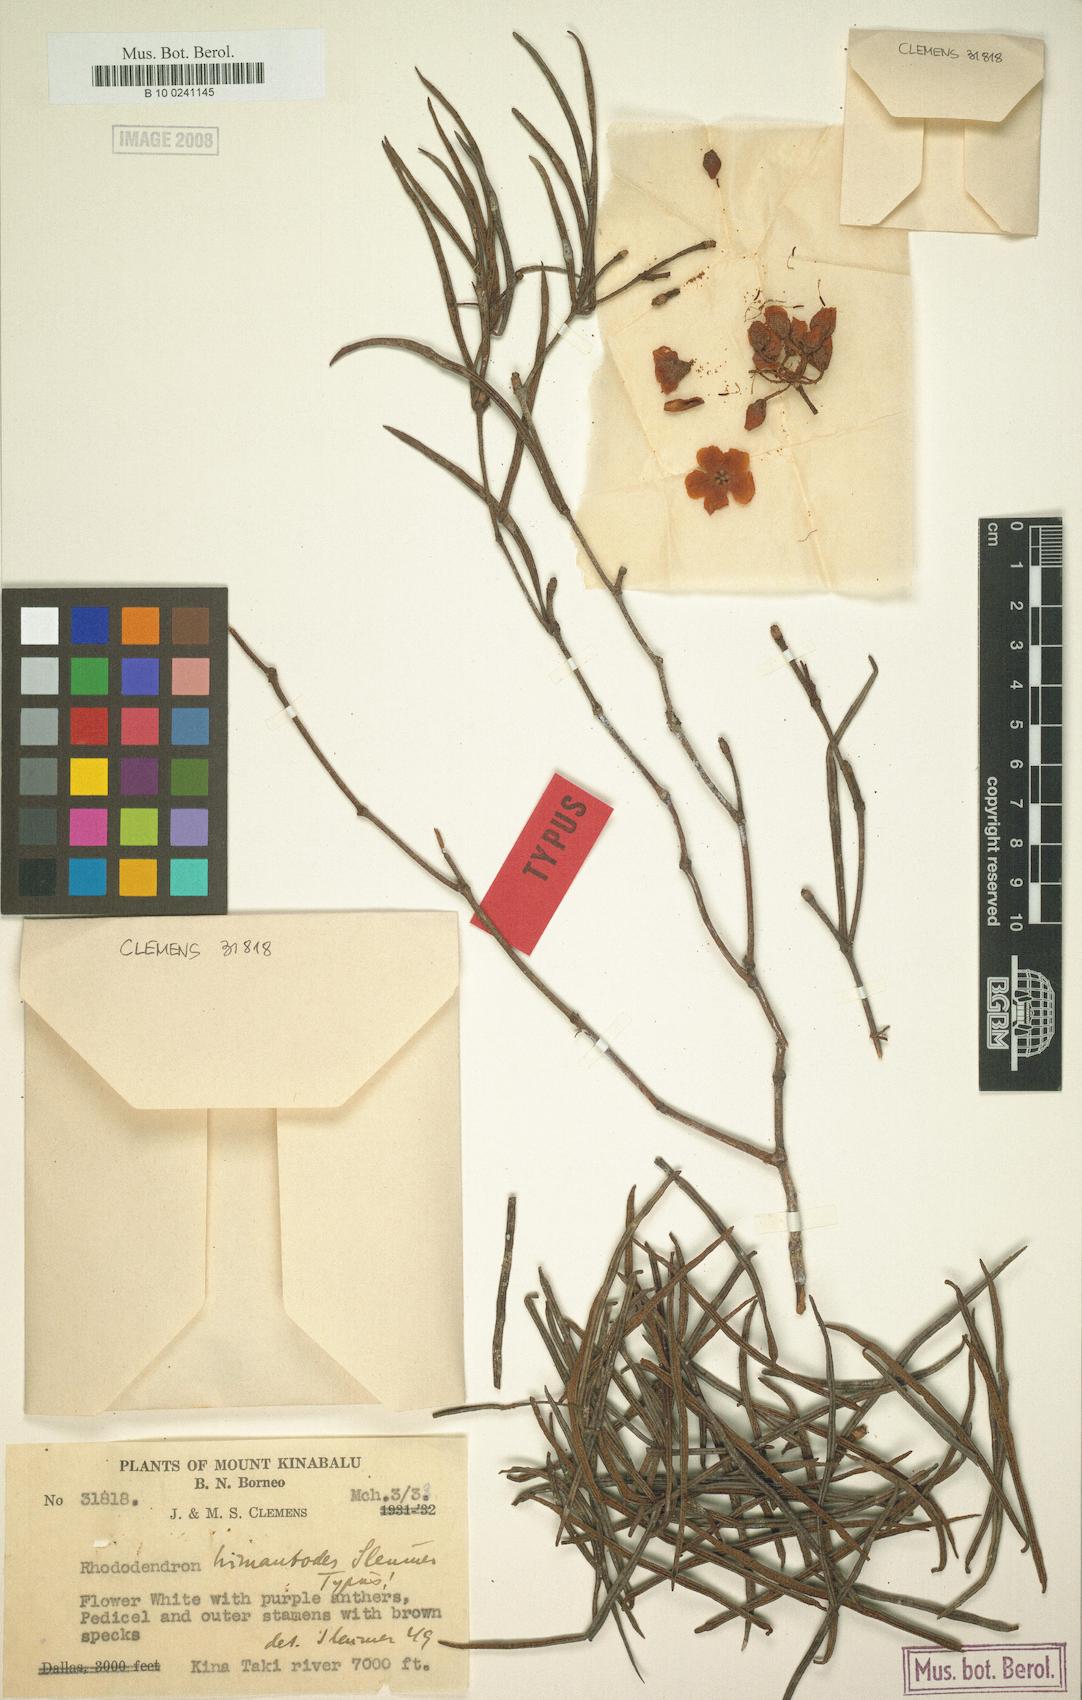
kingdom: Plantae
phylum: Tracheophyta
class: Magnoliopsida
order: Ericales
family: Ericaceae
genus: Rhododendron
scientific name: Rhododendron himantodes
